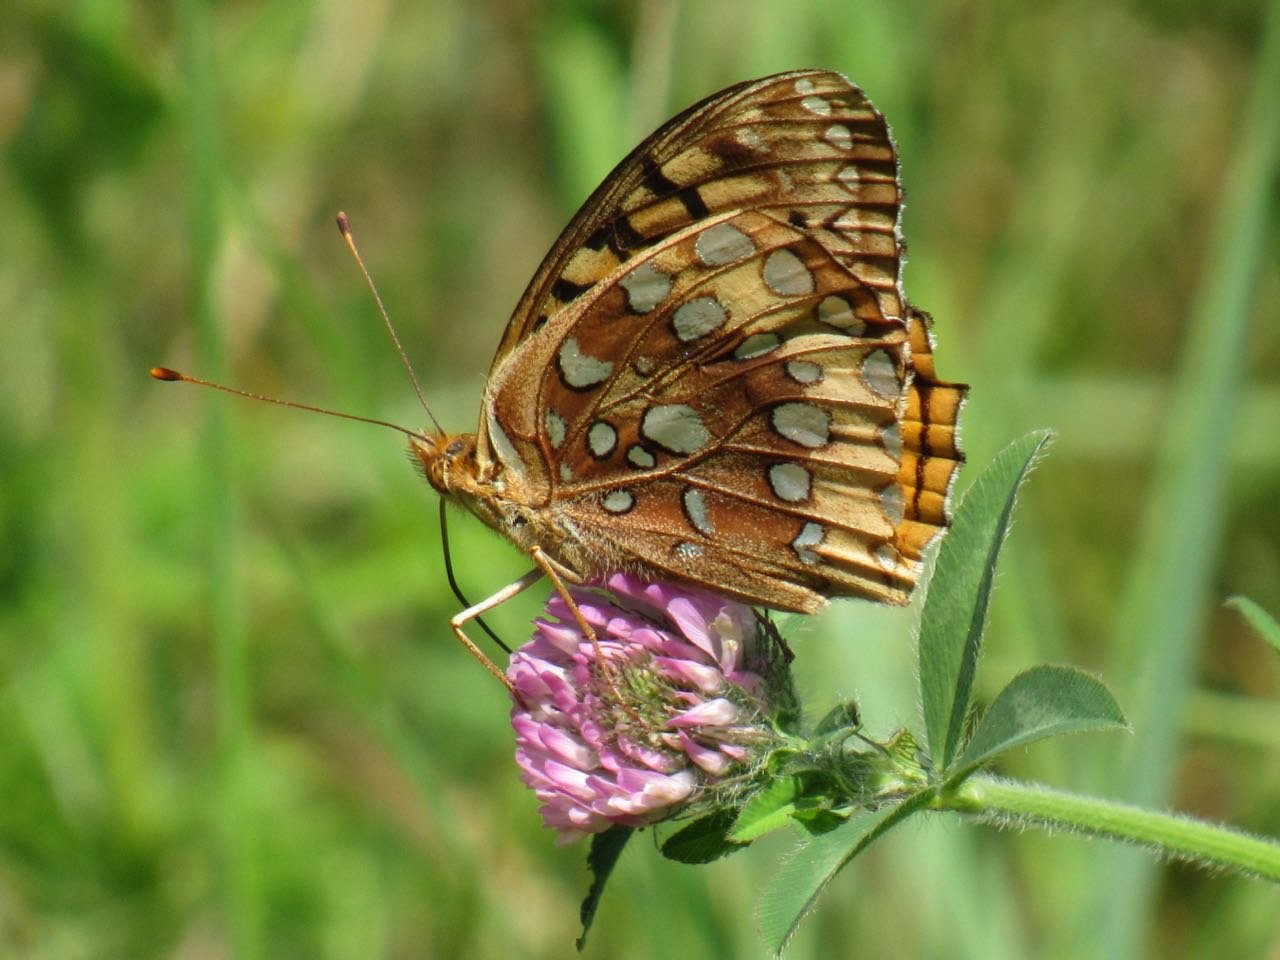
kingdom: Animalia
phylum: Arthropoda
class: Insecta
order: Lepidoptera
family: Nymphalidae
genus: Speyeria
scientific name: Speyeria cybele
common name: Great Spangled Fritillary
